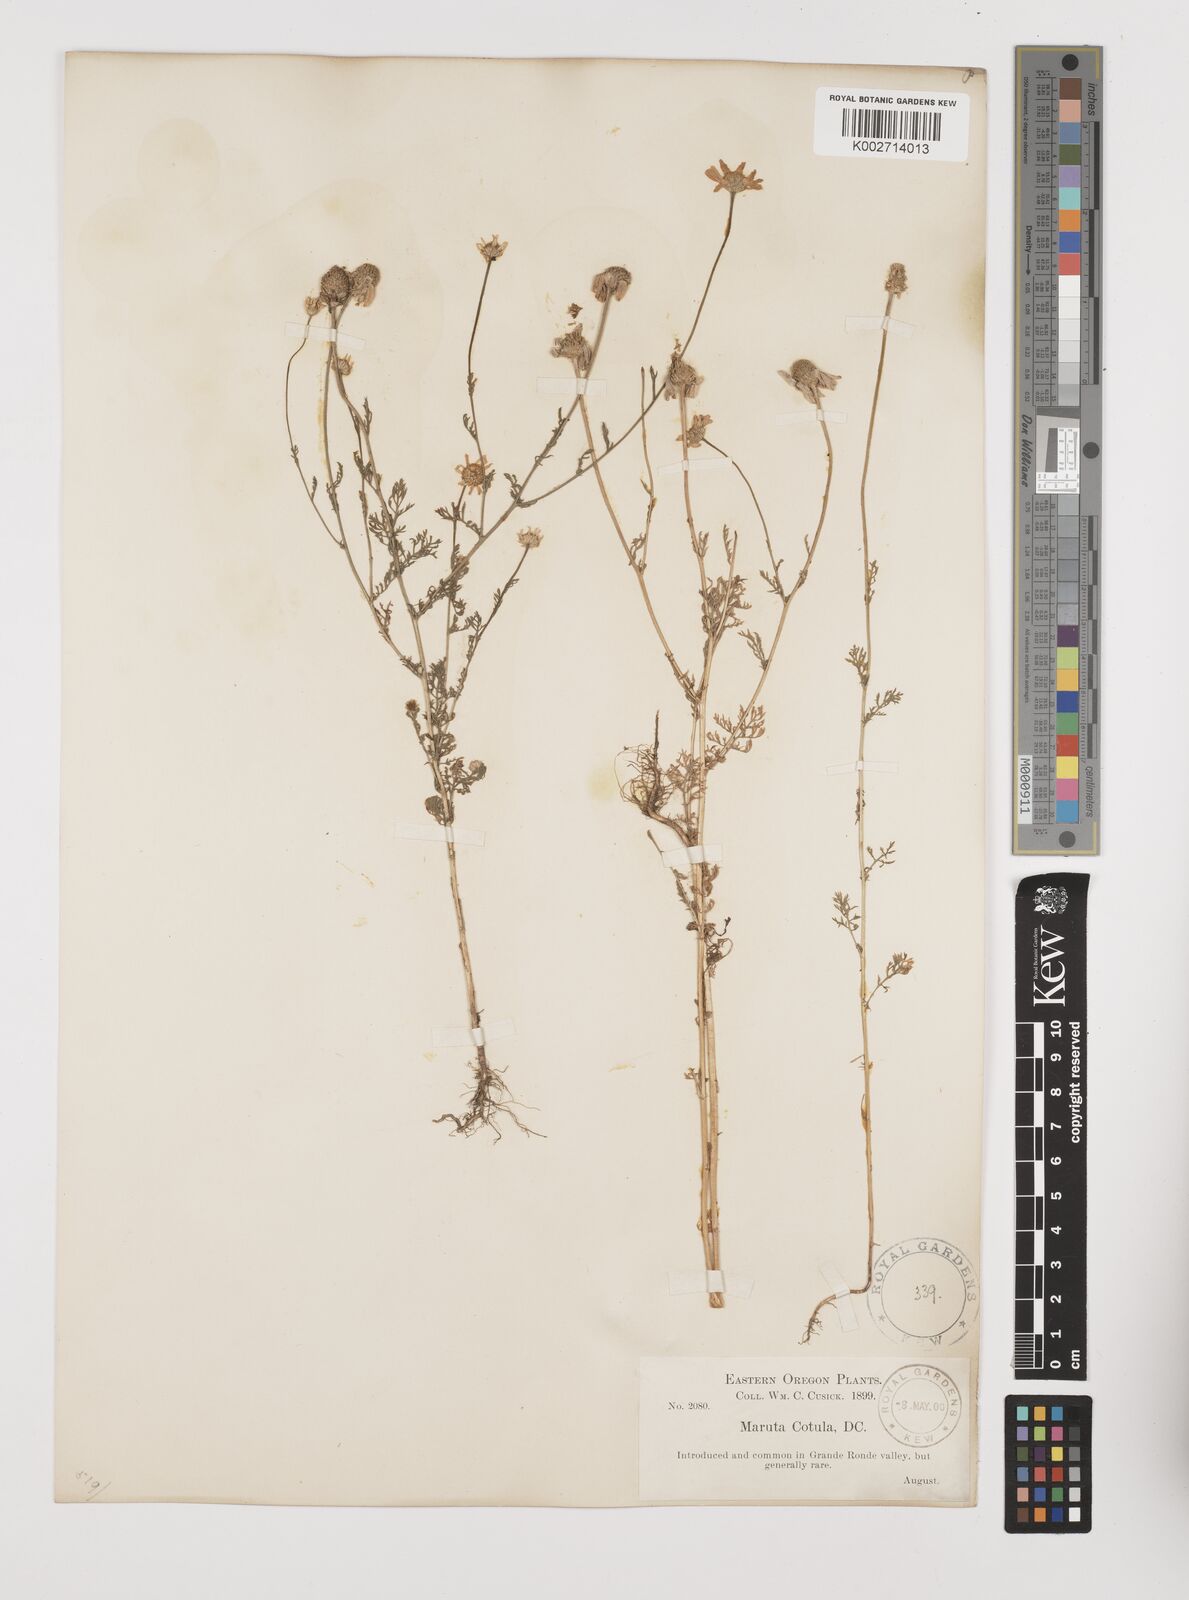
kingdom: Plantae
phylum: Tracheophyta
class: Magnoliopsida
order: Asterales
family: Asteraceae
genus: Anthemis
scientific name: Anthemis cotula
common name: Stinking chamomile
